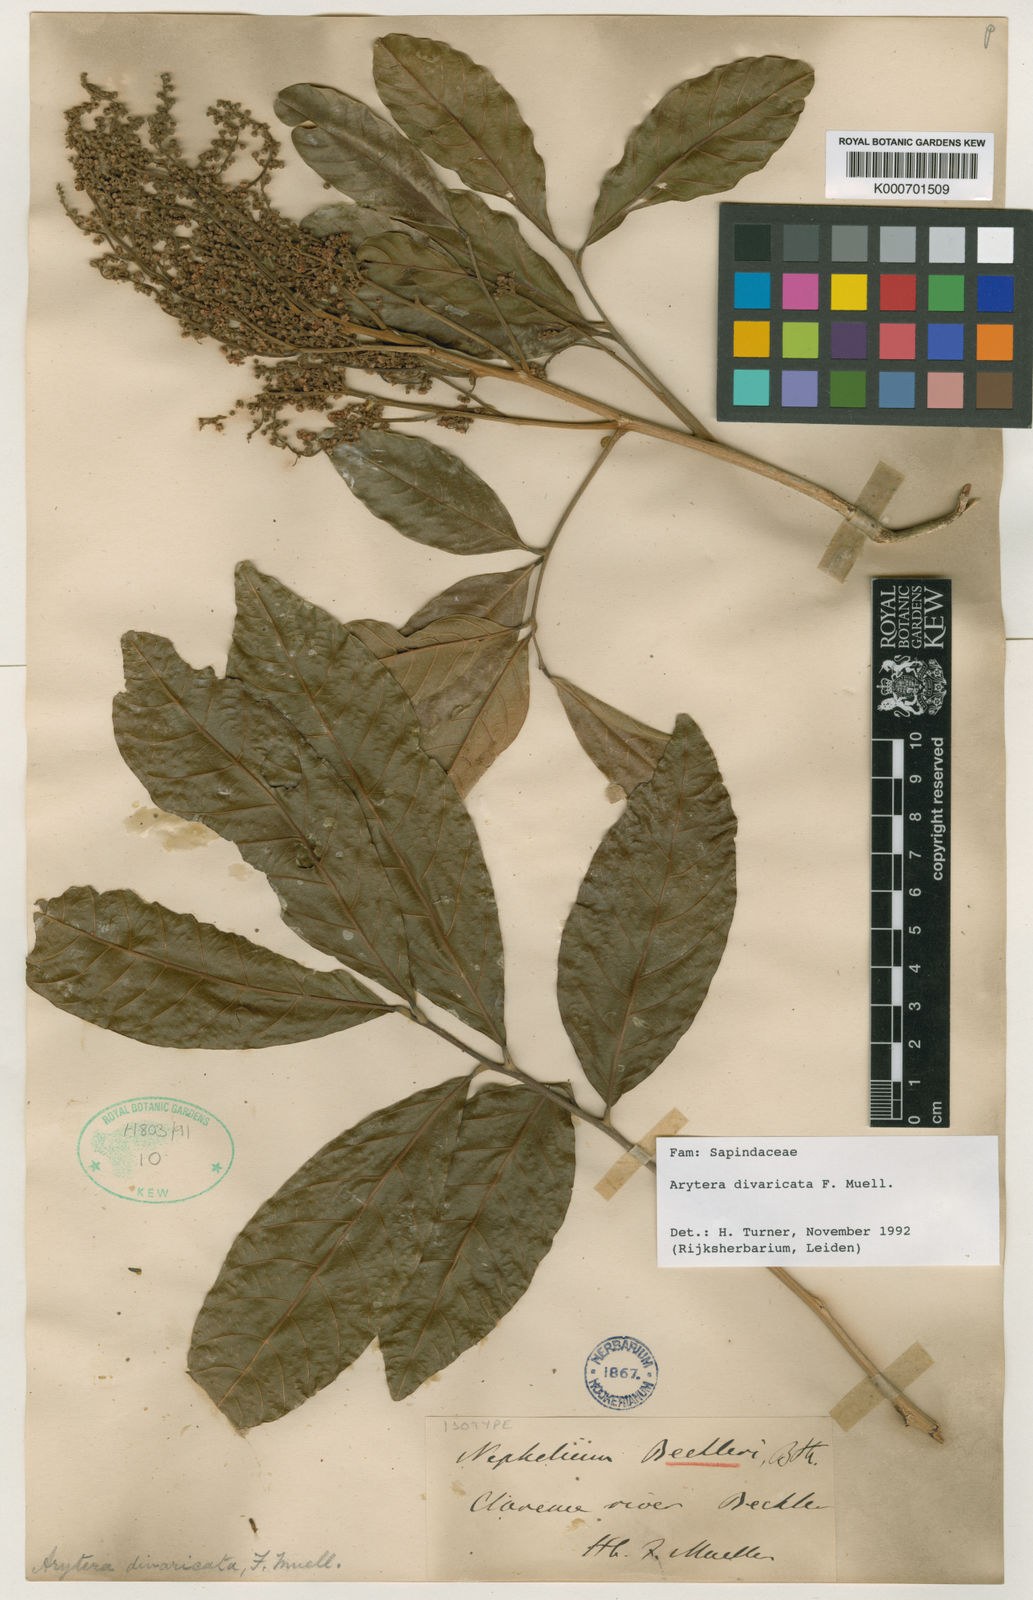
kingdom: Plantae
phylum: Tracheophyta
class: Magnoliopsida
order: Sapindales
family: Sapindaceae
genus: Arytera
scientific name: Arytera divaricata
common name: Coogera
